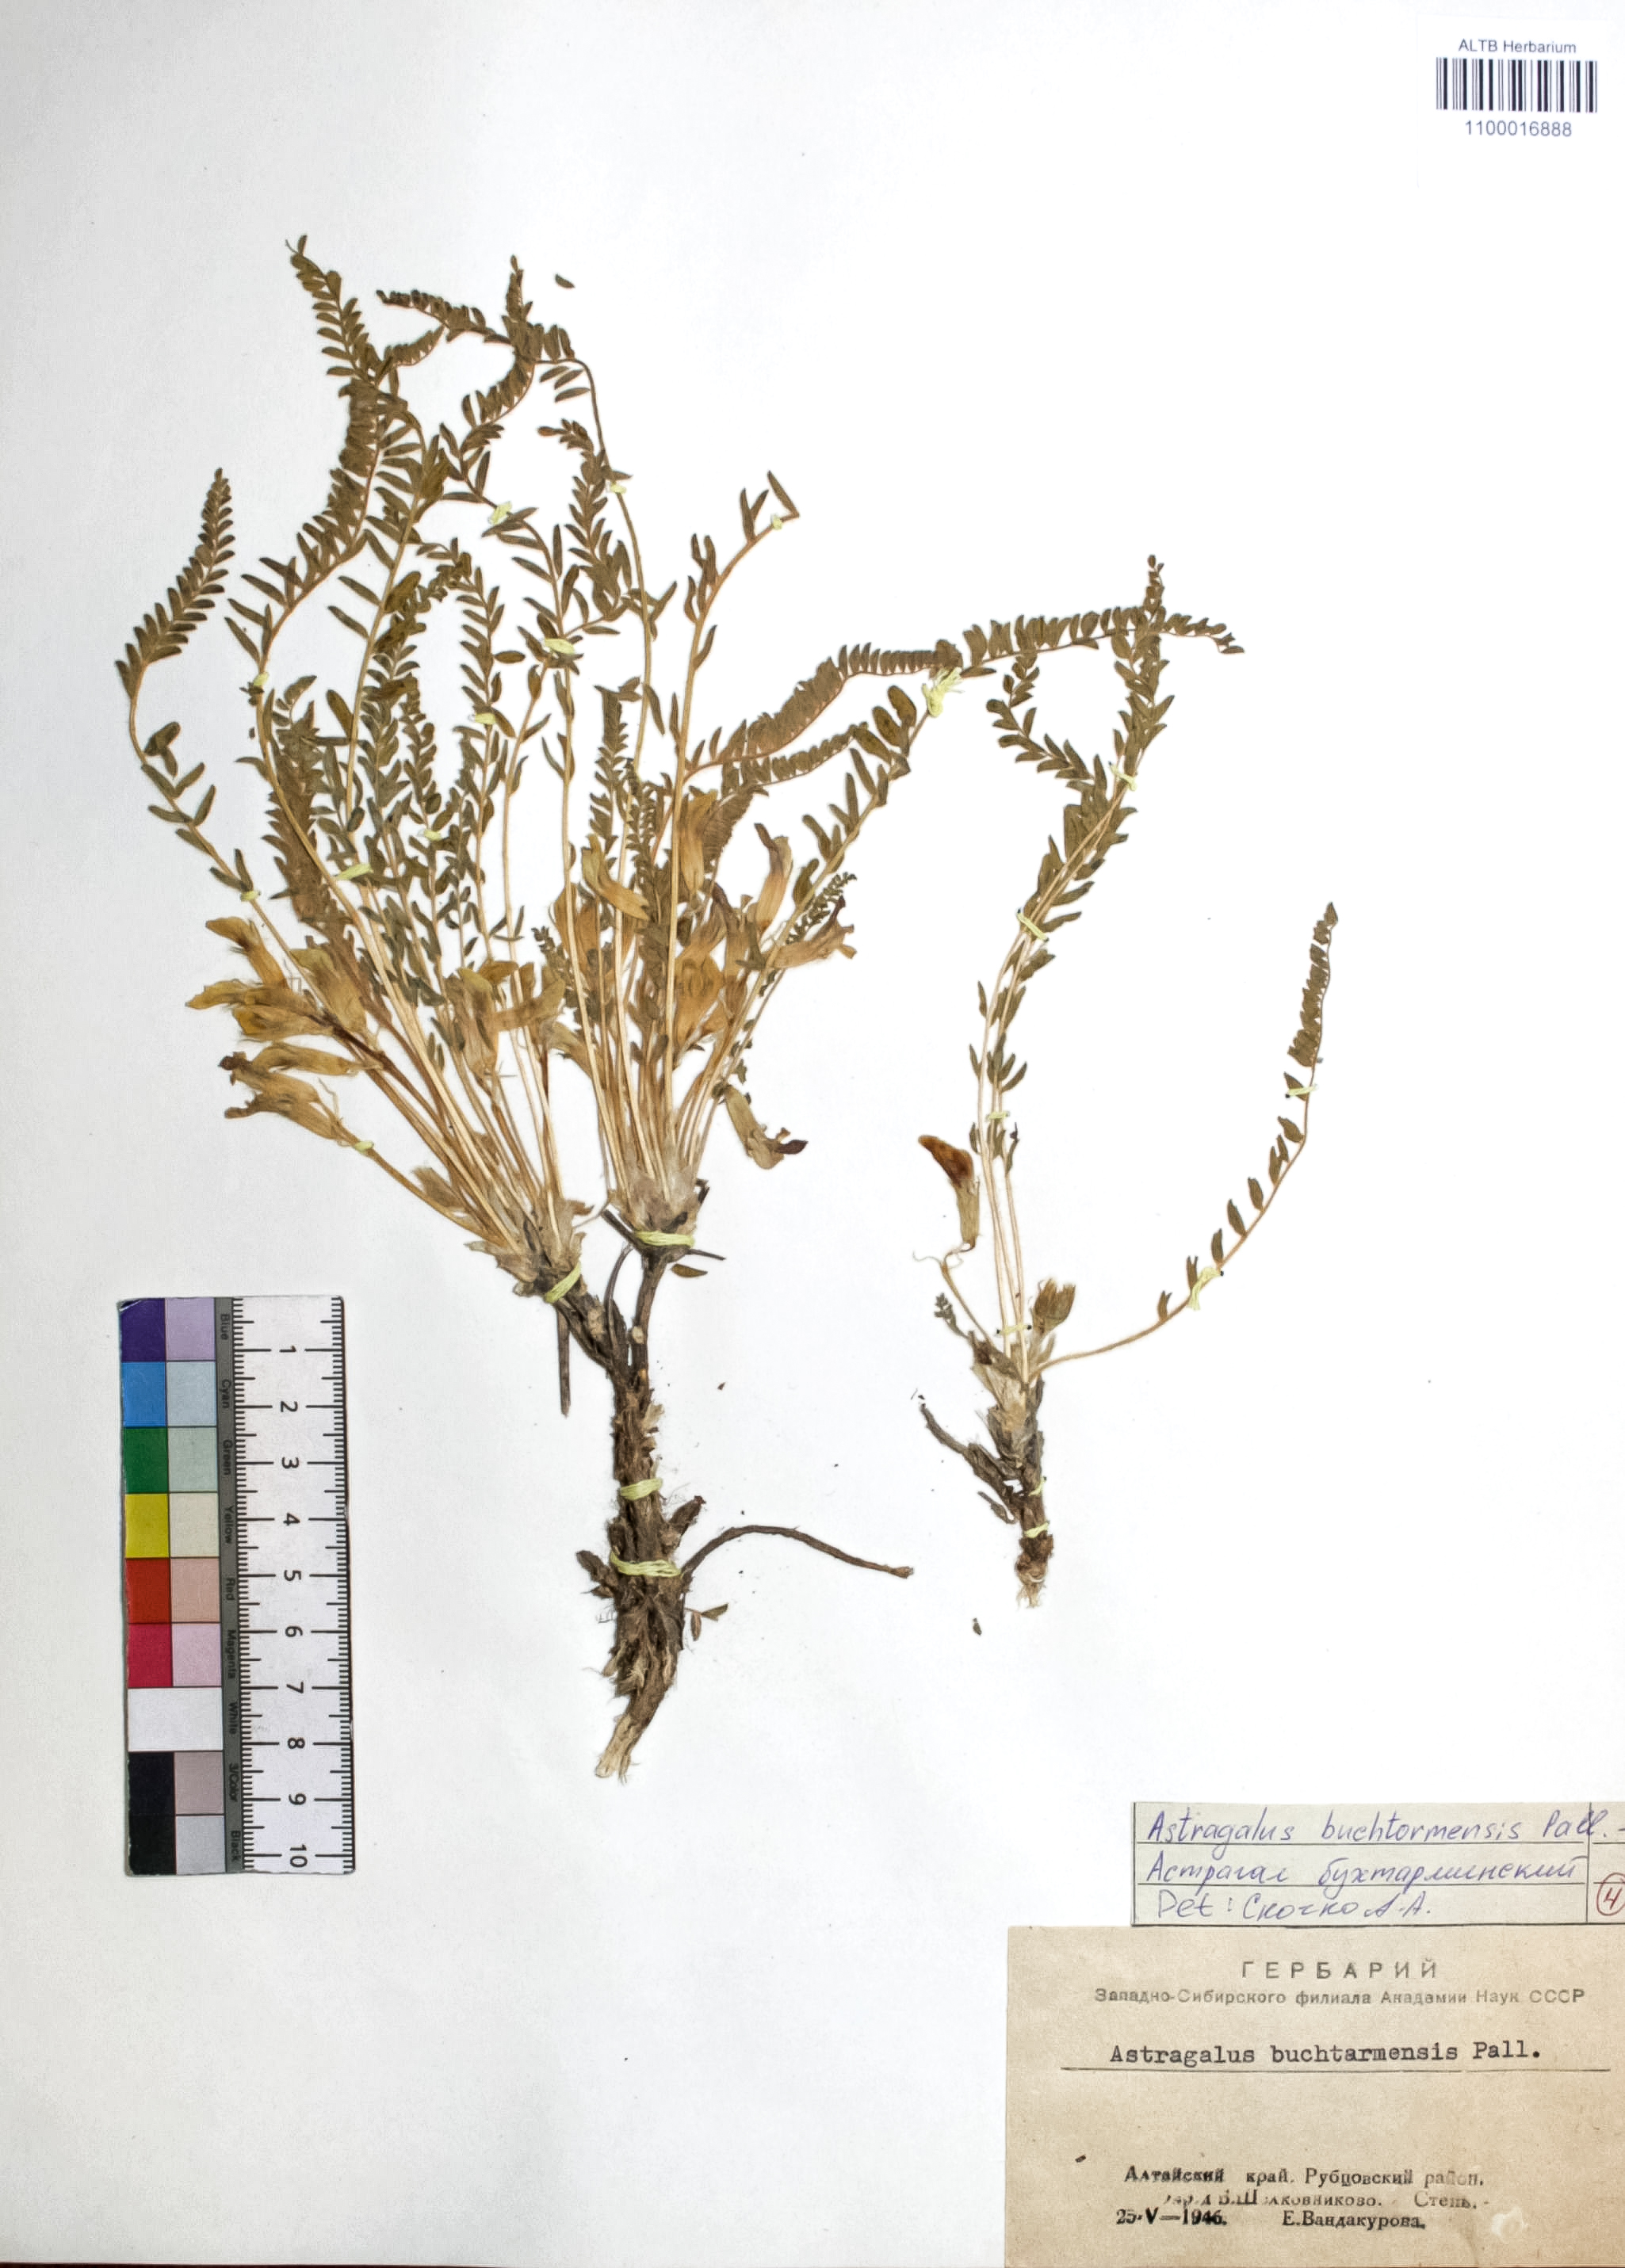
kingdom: Plantae
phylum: Tracheophyta
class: Magnoliopsida
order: Fabales
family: Fabaceae
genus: Astragalus
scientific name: Astragalus buchtormensis
